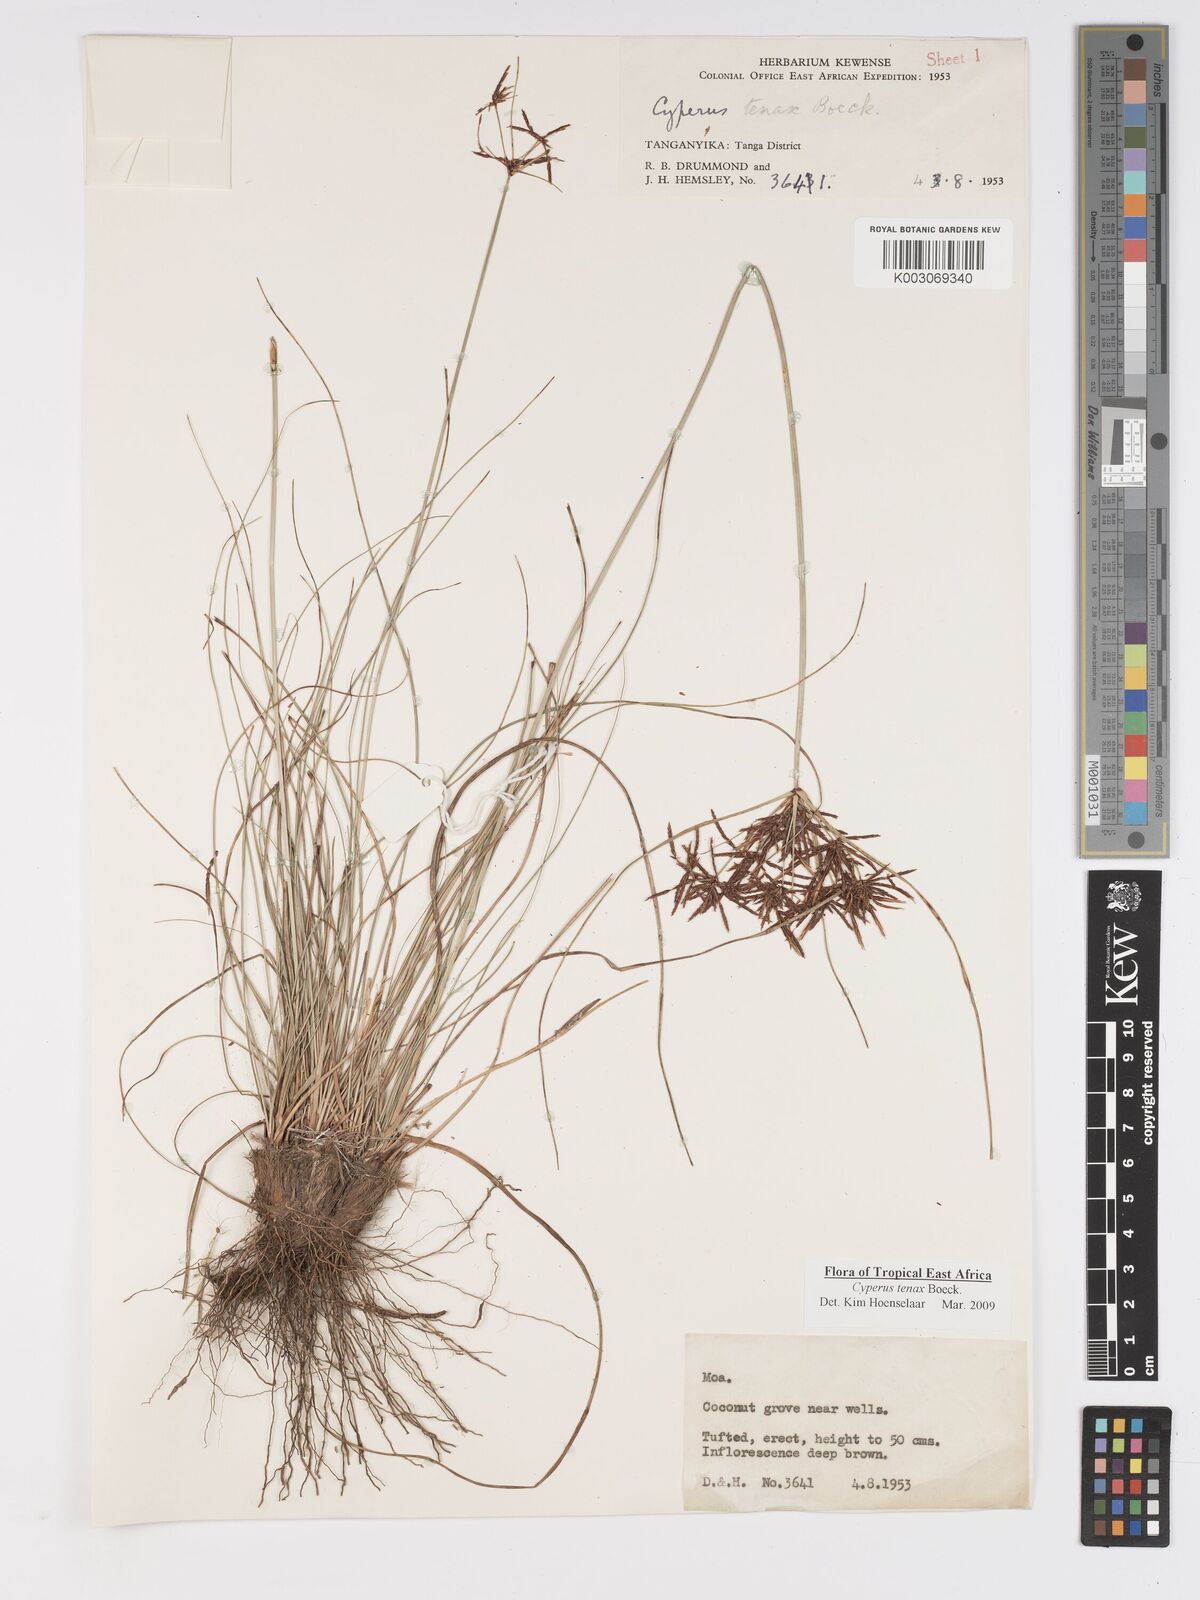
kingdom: Plantae
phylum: Tracheophyta
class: Liliopsida
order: Poales
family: Cyperaceae
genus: Cyperus
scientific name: Cyperus tenax
